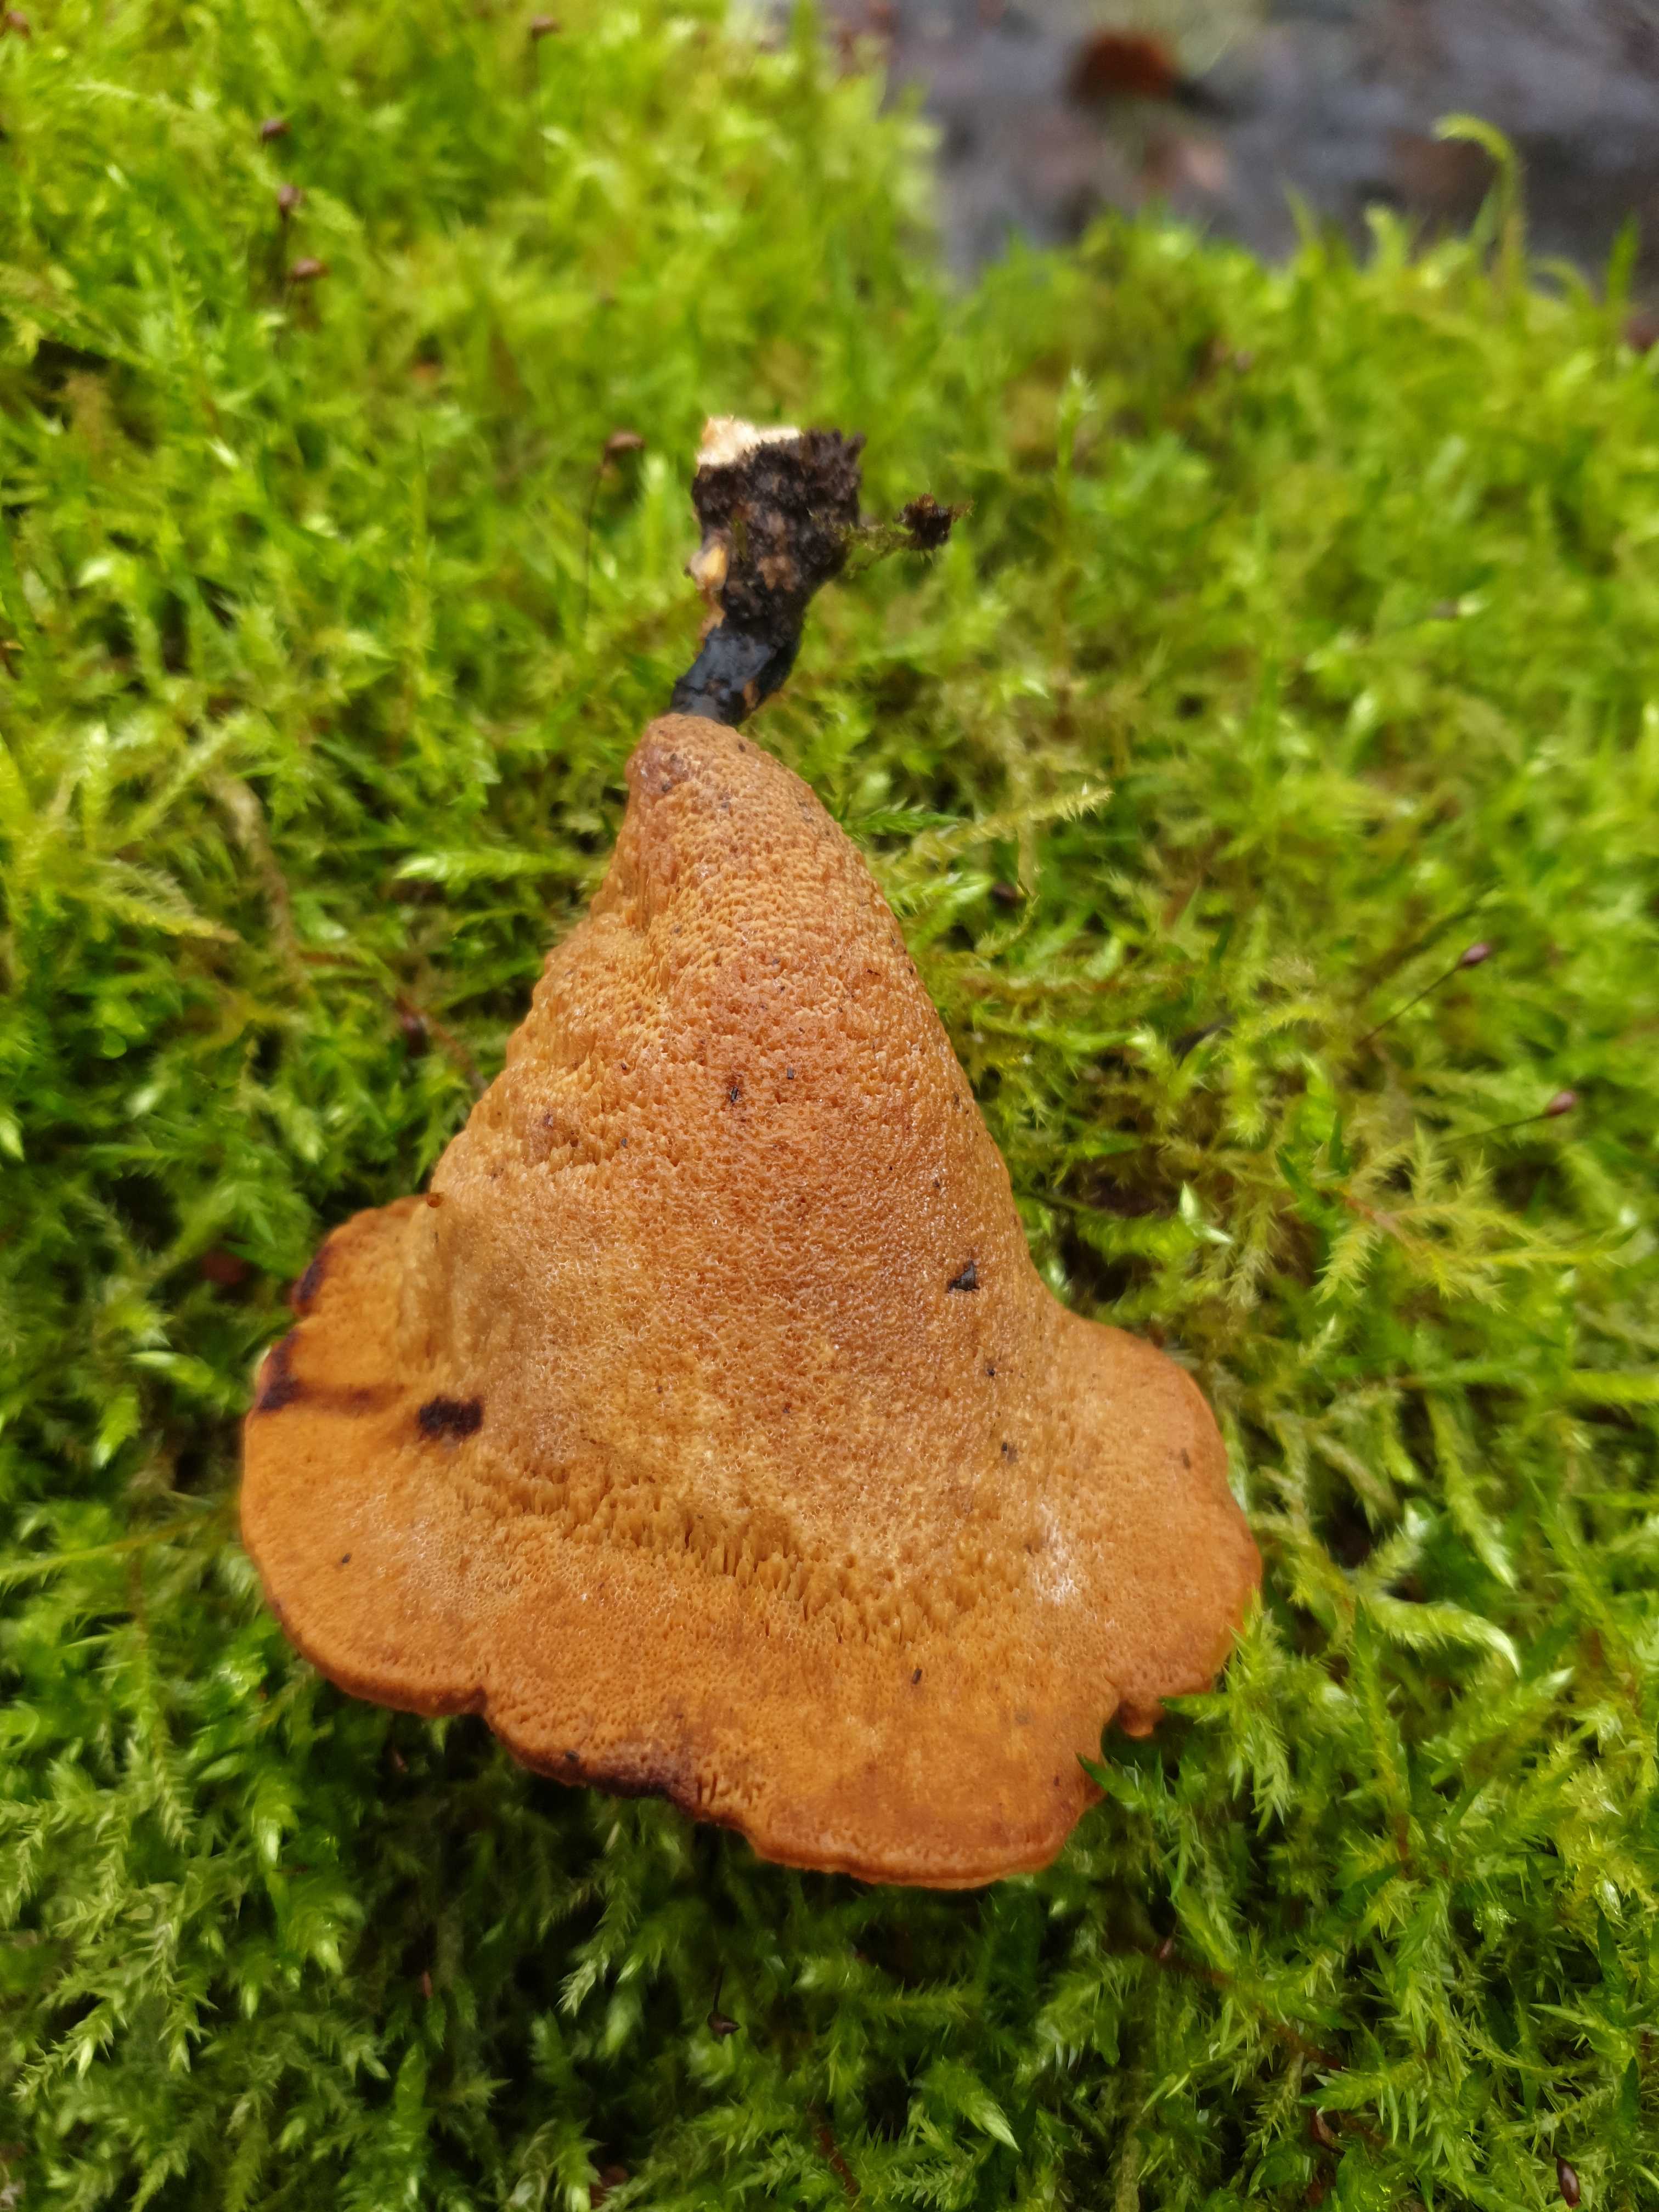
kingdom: Fungi
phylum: Basidiomycota
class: Agaricomycetes
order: Polyporales
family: Polyporaceae
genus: Cerioporus
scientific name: Cerioporus varius
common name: foranderlig stilkporesvamp
